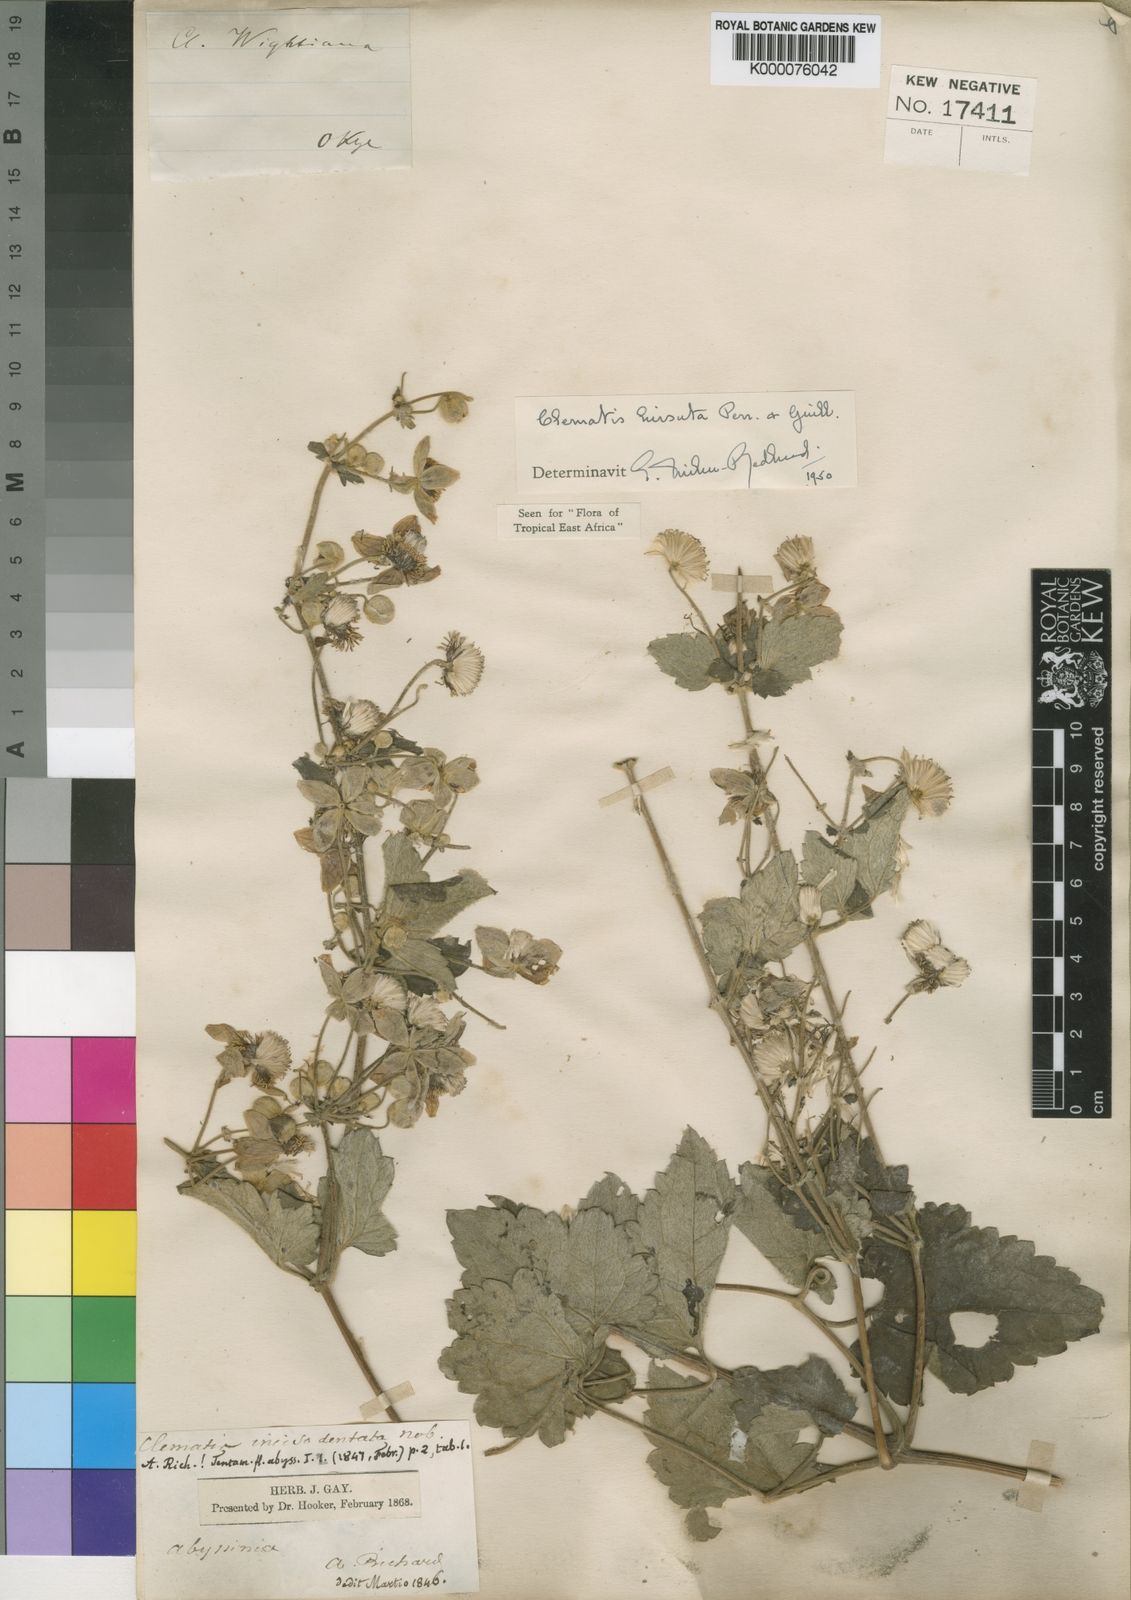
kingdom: Plantae
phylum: Tracheophyta
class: Magnoliopsida
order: Ranunculales
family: Ranunculaceae
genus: Clematis
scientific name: Clematis hirsuta
